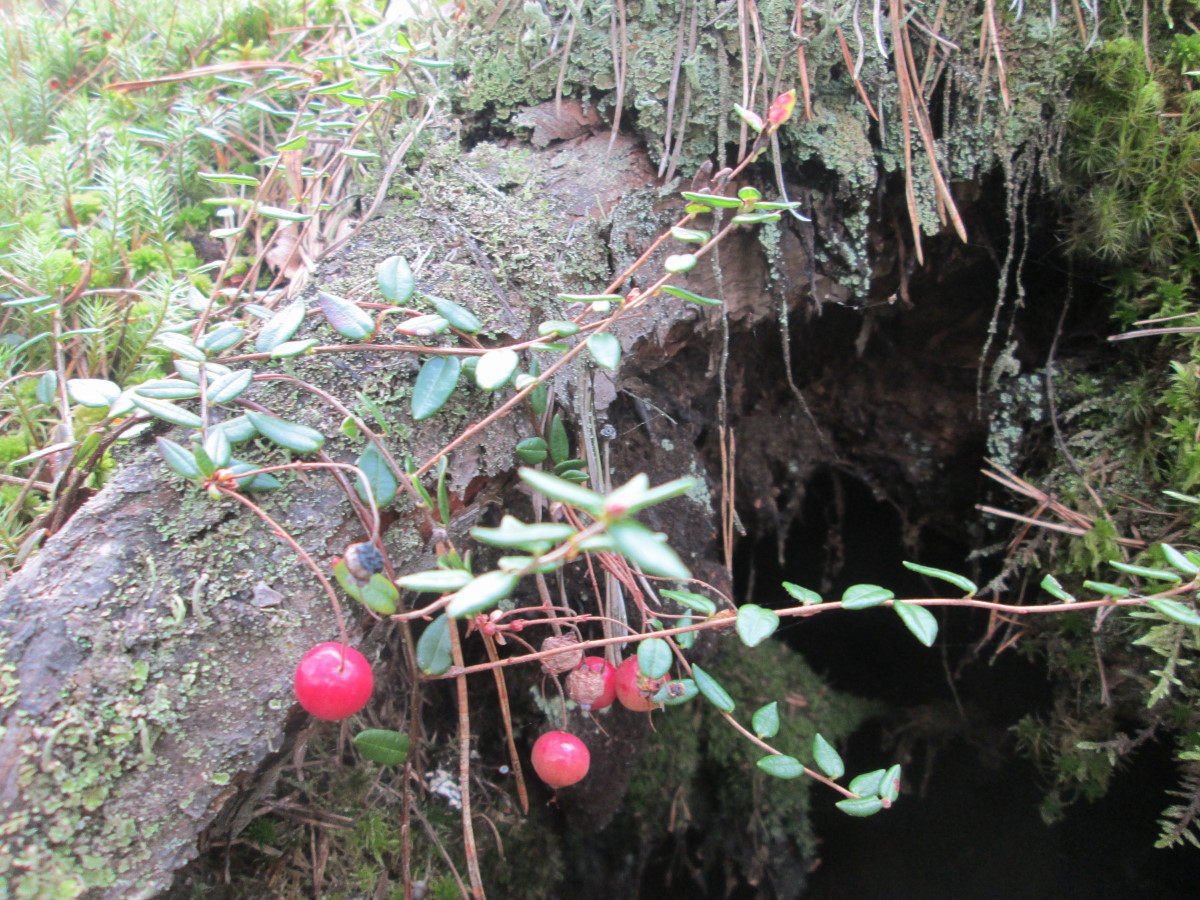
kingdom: Plantae
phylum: Tracheophyta
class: Magnoliopsida
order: Ericales
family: Ericaceae
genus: Vaccinium
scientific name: Vaccinium oxycoccos
